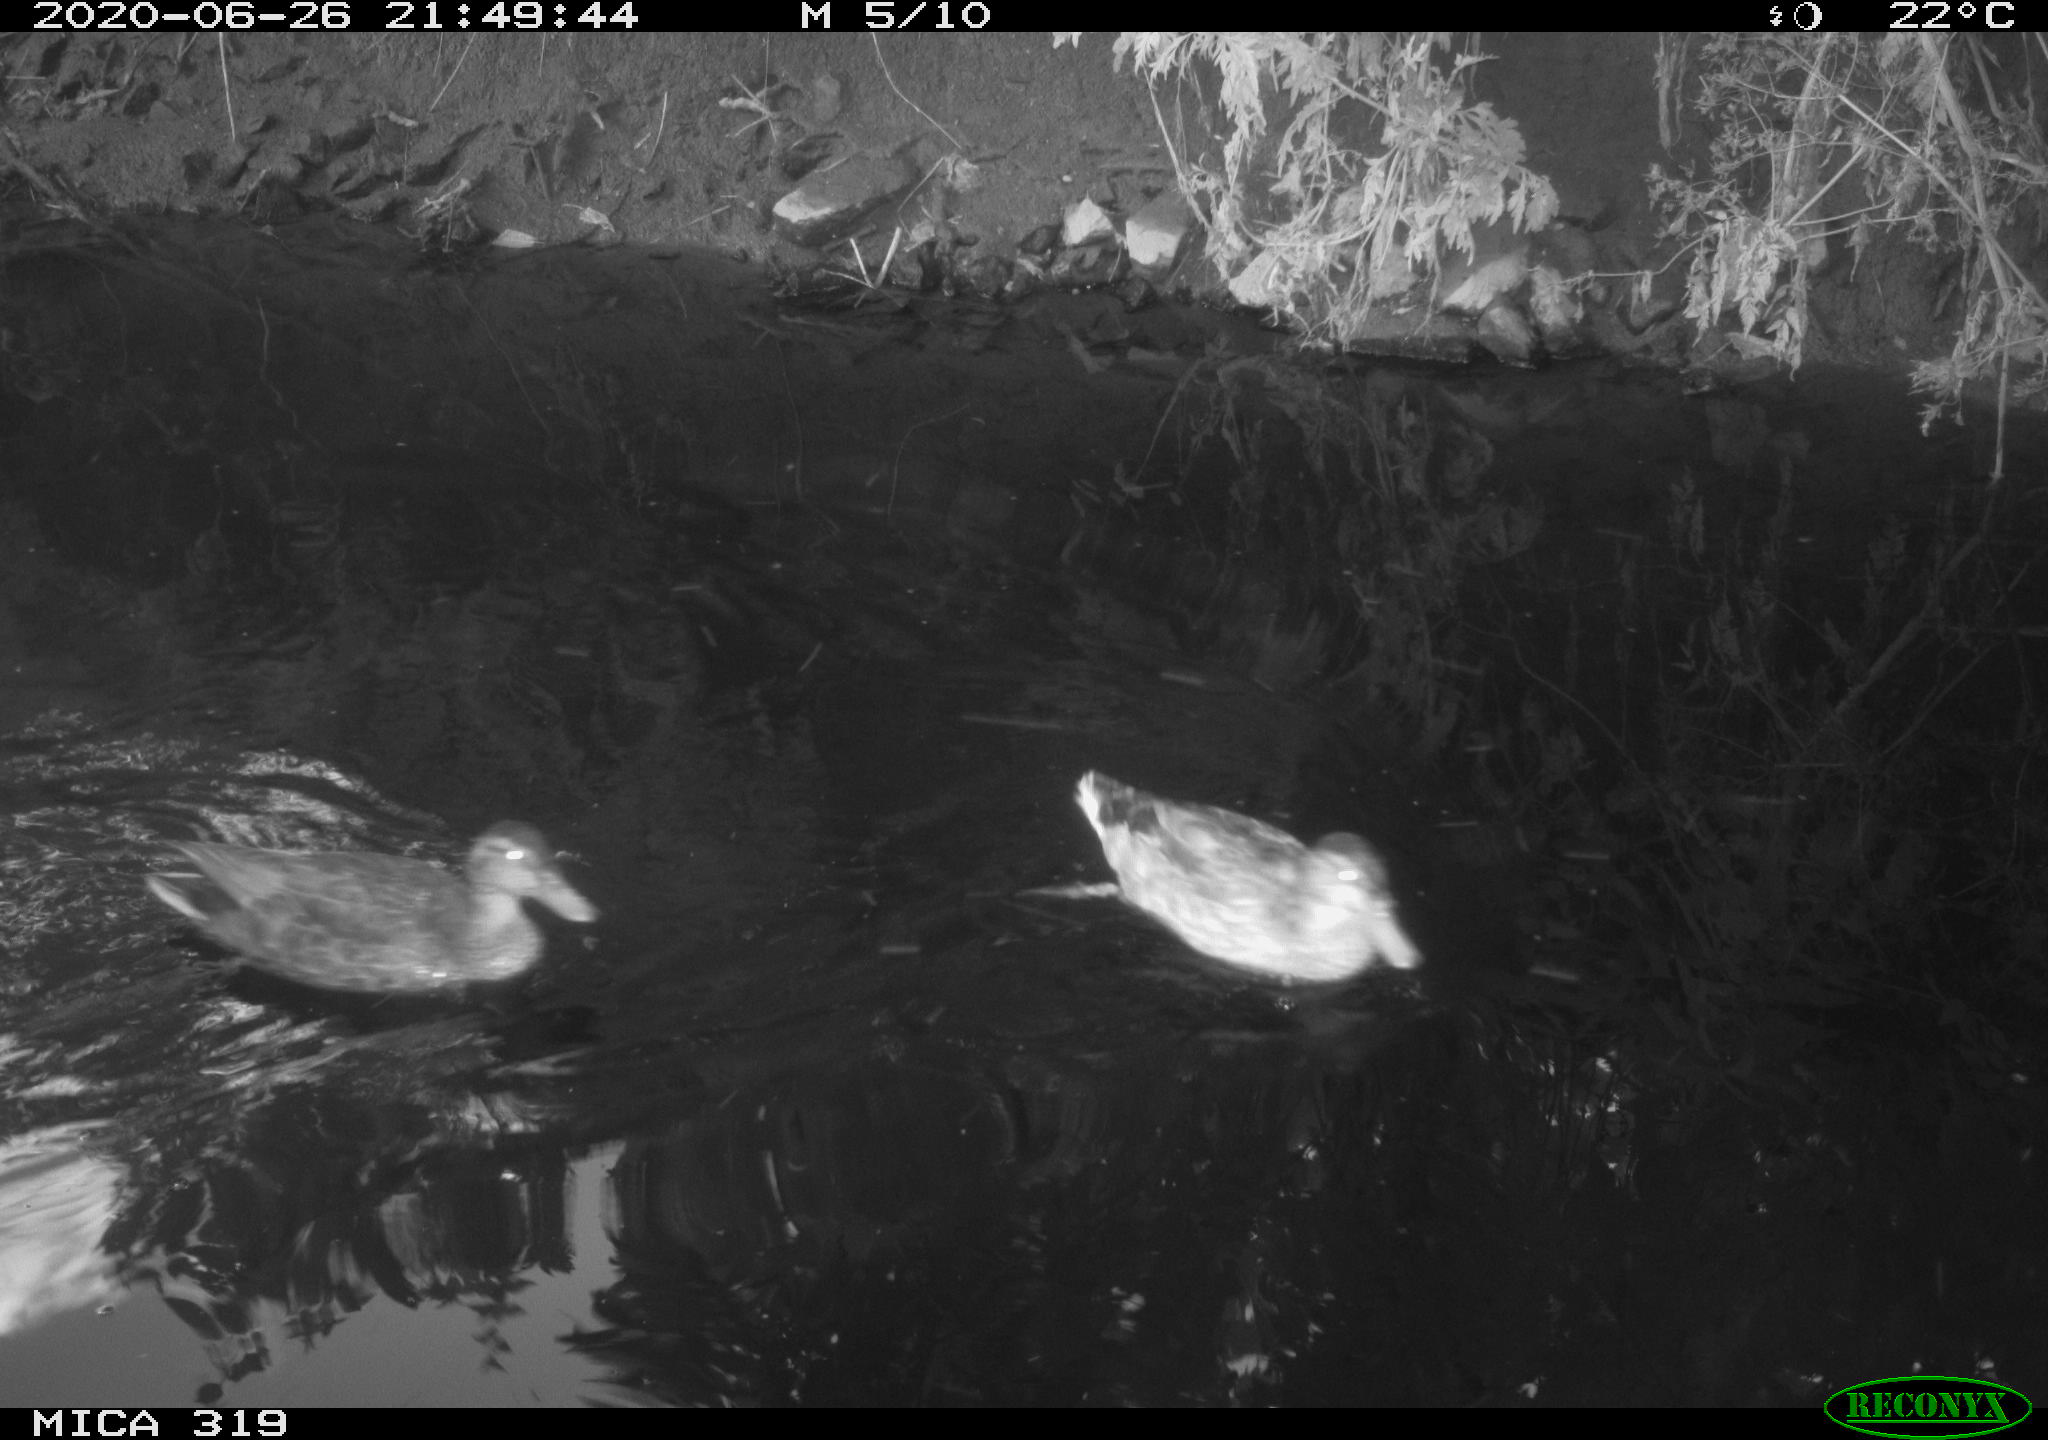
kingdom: Animalia
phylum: Chordata
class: Aves
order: Anseriformes
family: Anatidae
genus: Anas
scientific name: Anas platyrhynchos
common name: Mallard
